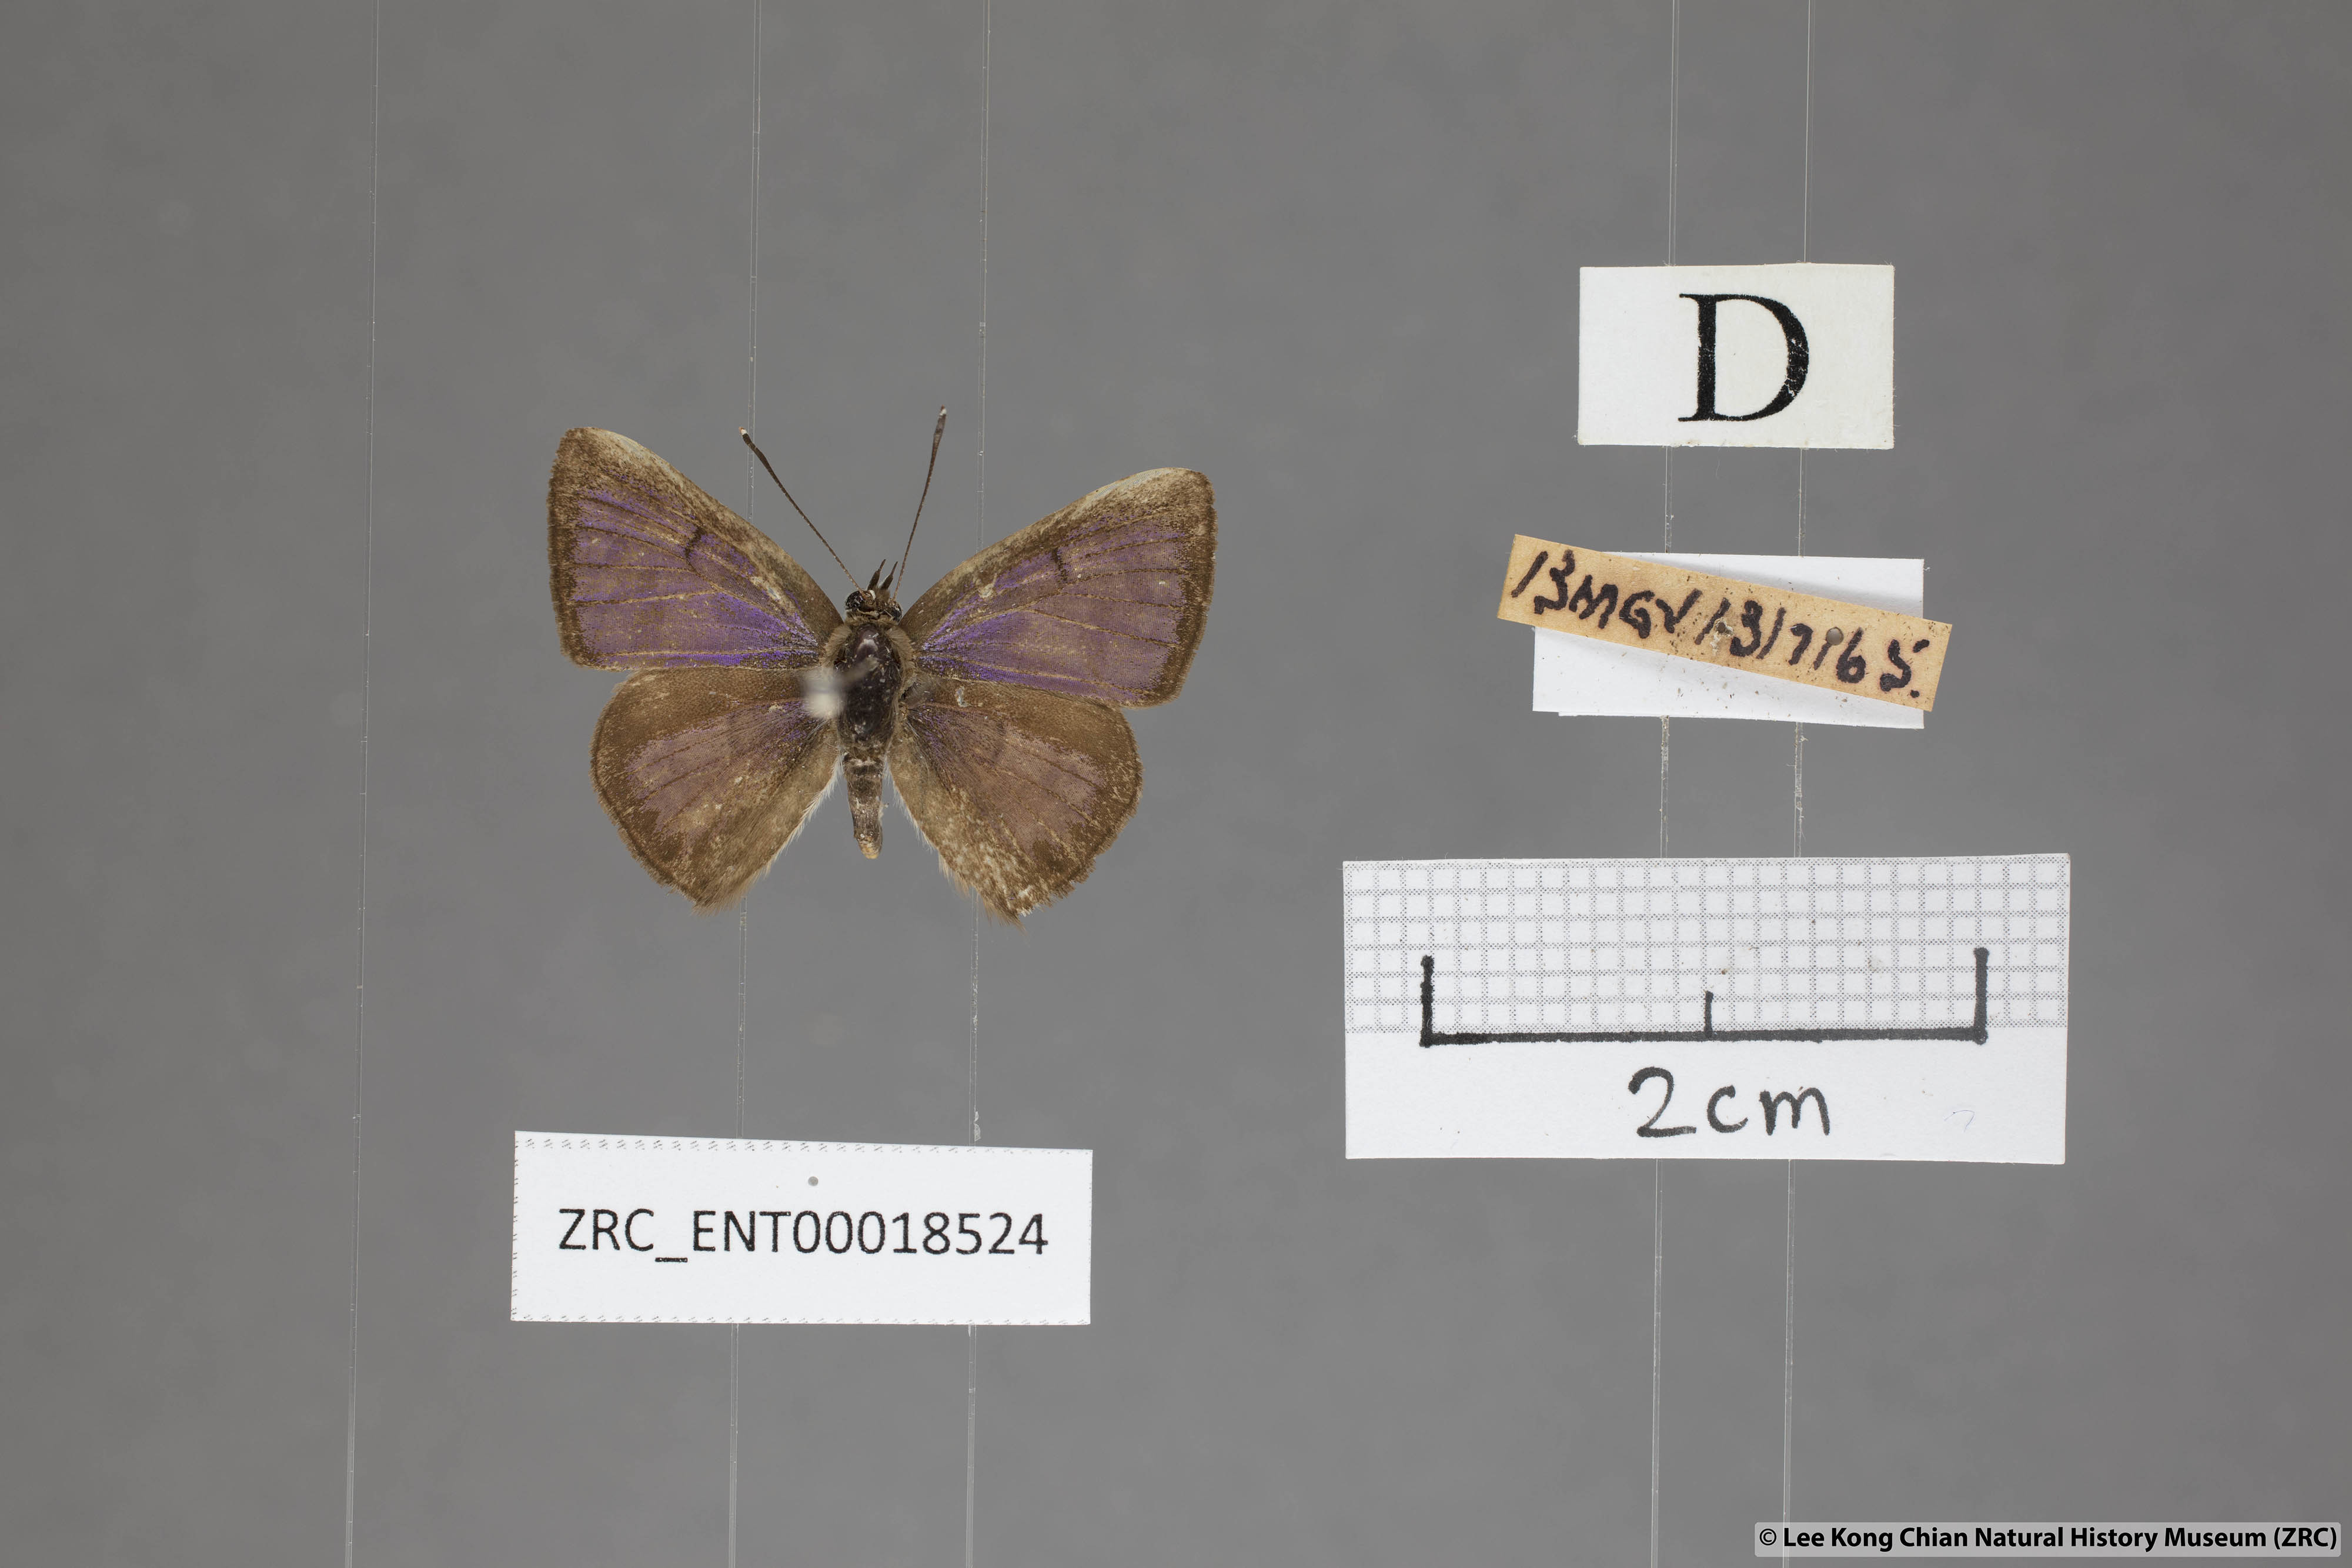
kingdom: Animalia
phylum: Arthropoda
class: Insecta
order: Lepidoptera
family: Lycaenidae
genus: Niphanda
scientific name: Niphanda cymbia
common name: Small pointed pierrot
